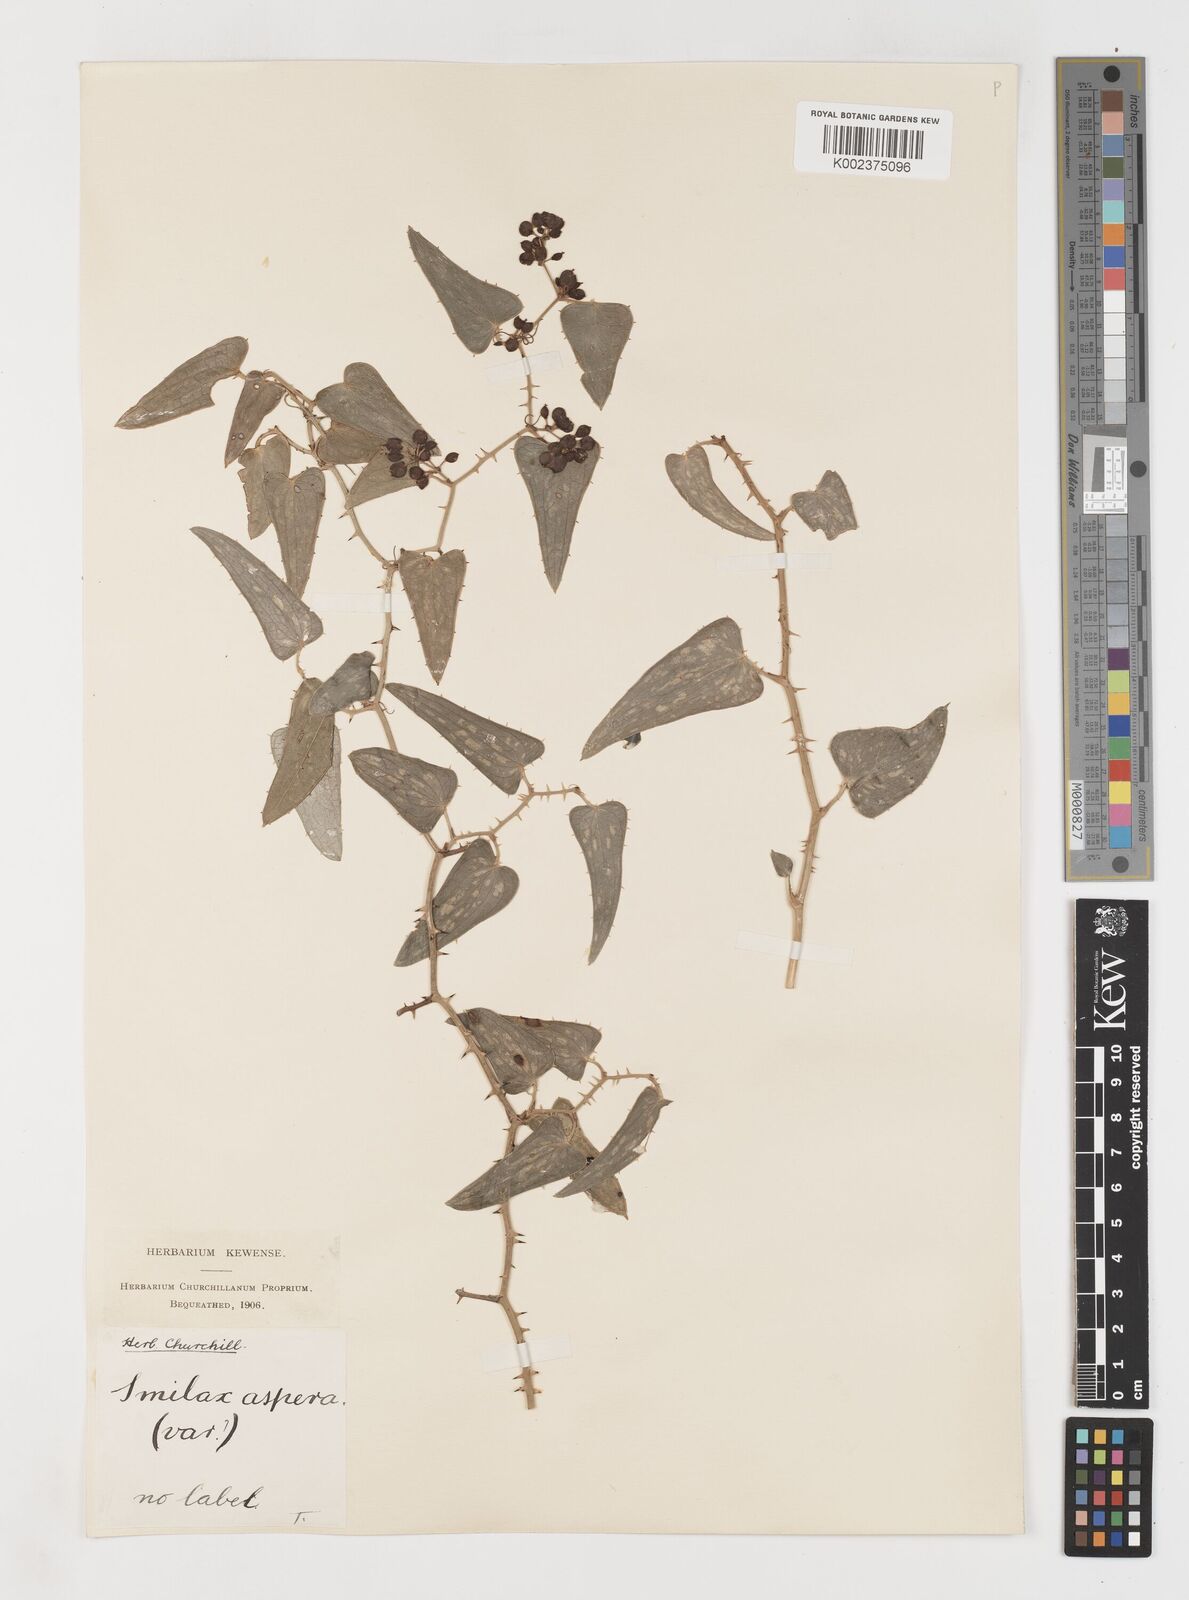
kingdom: Plantae
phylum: Tracheophyta
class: Liliopsida
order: Liliales
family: Smilacaceae
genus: Smilax
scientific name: Smilax aspera
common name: Common smilax
